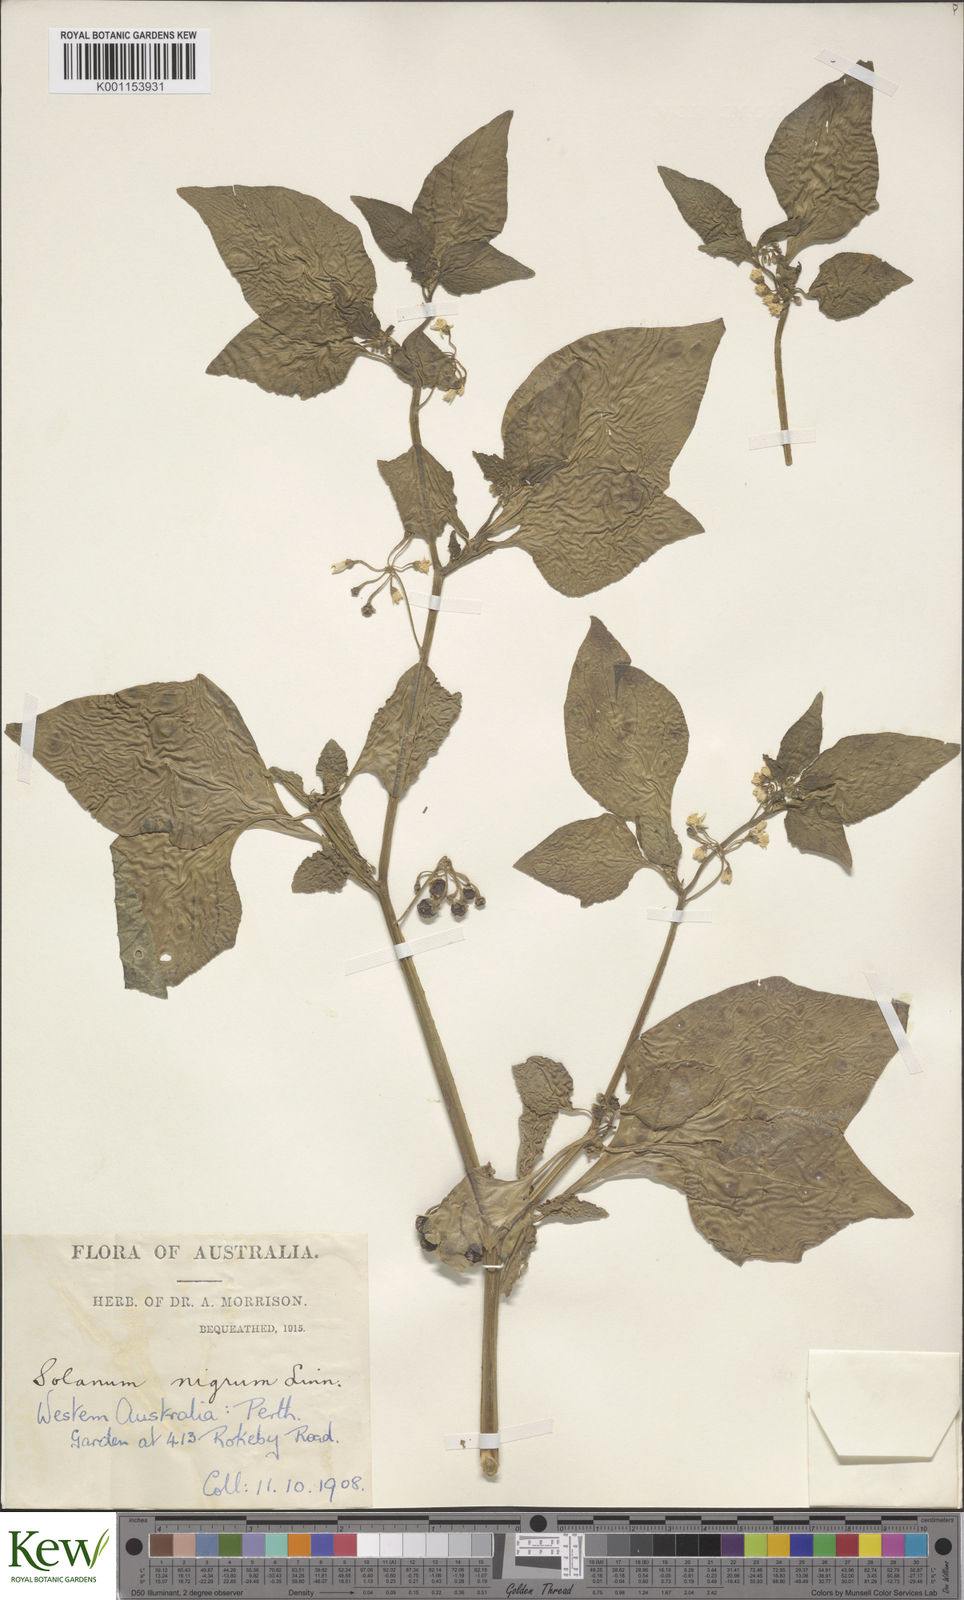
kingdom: Plantae
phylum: Tracheophyta
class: Magnoliopsida
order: Solanales
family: Solanaceae
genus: Solanum
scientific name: Solanum nigrum
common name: Black nightshade
